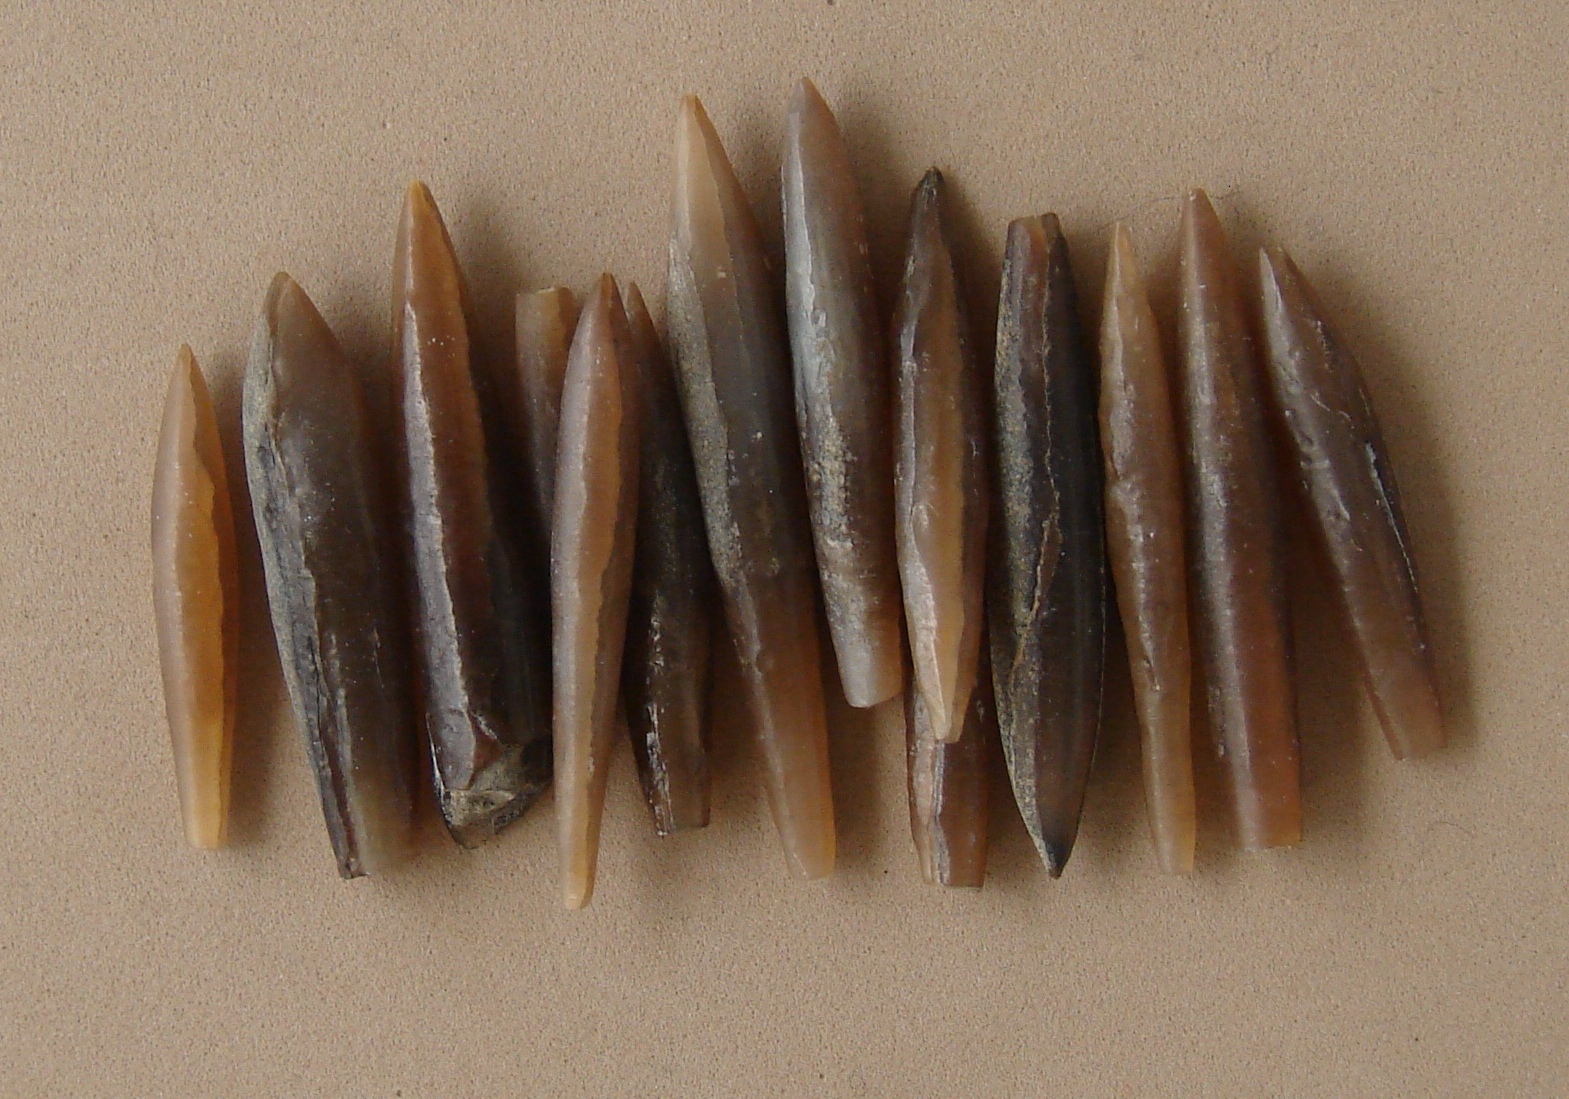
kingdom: Animalia
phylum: Mollusca
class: Cephalopoda
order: Belemnitida
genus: Subhastites
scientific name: Subhastites
